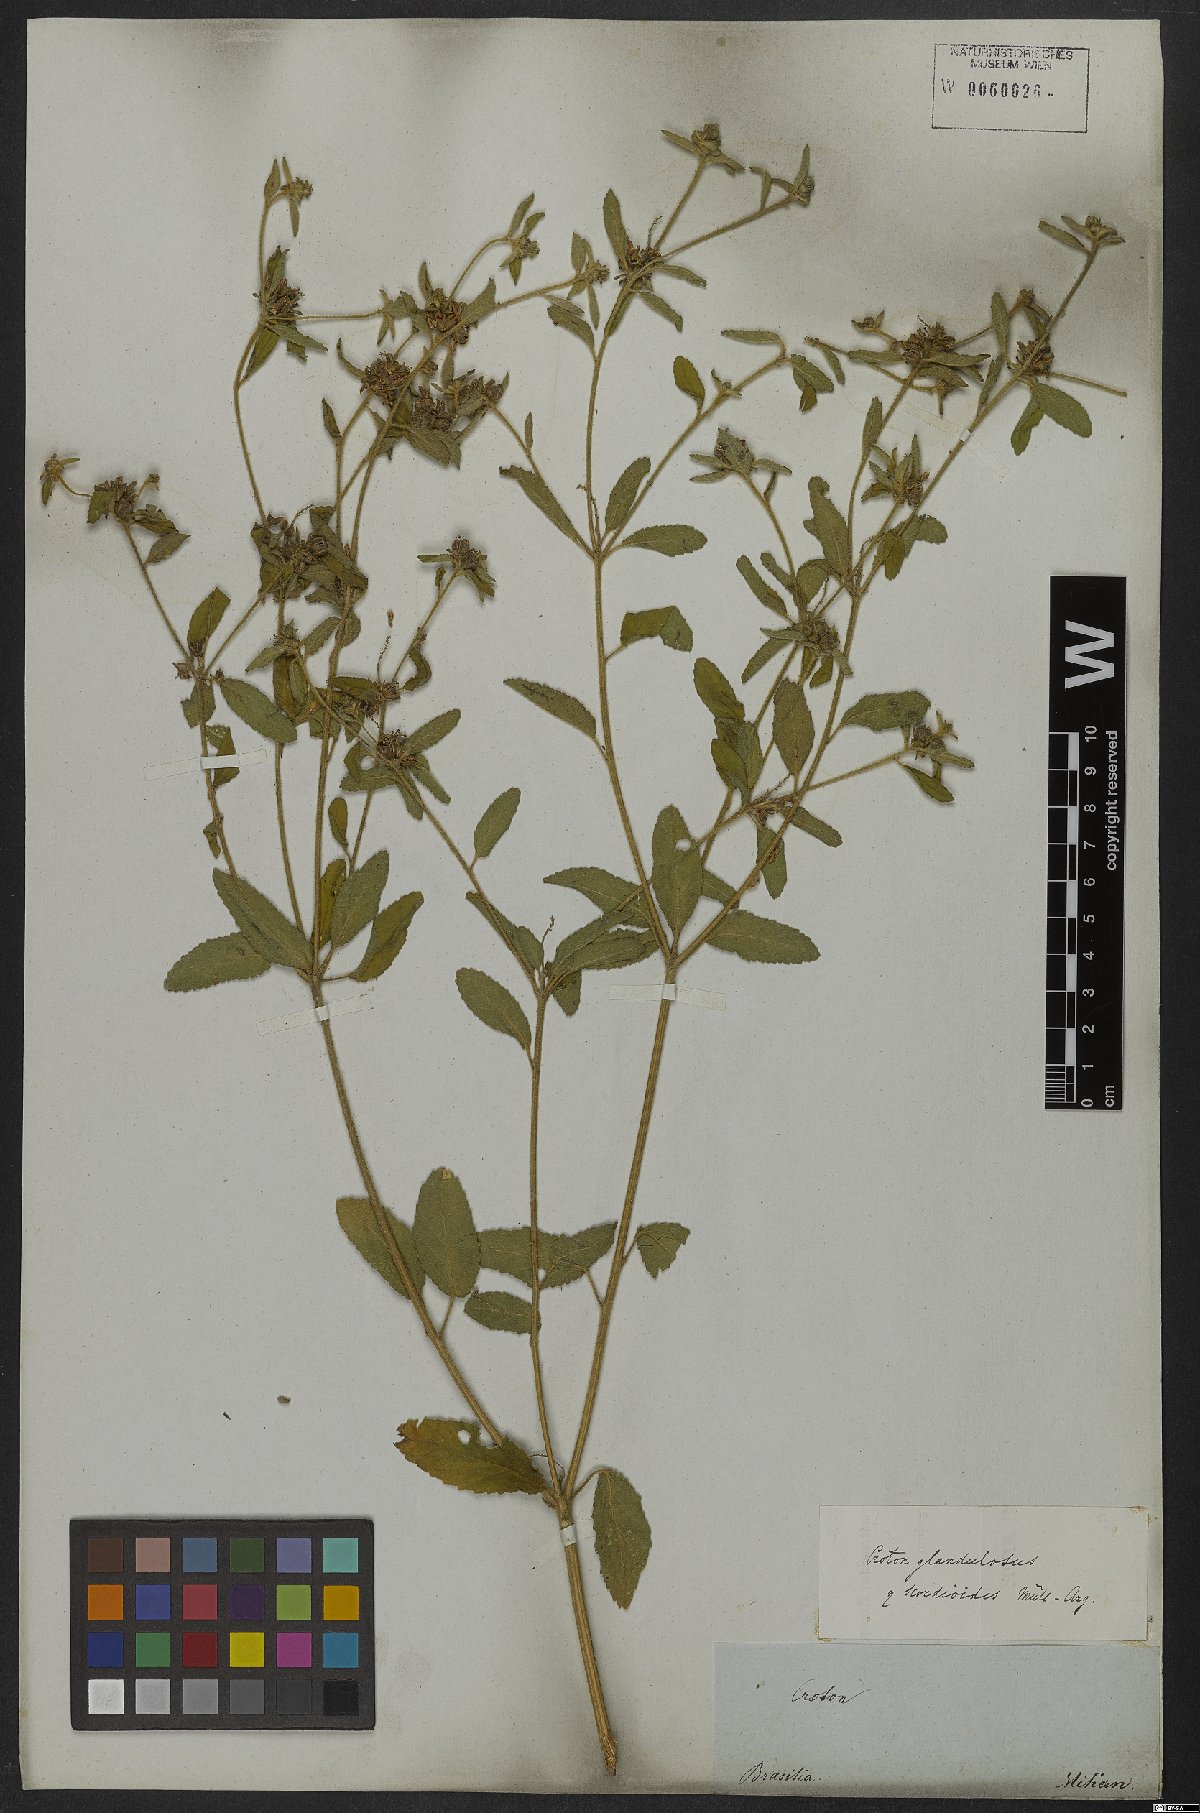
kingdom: Plantae
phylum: Tracheophyta
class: Magnoliopsida
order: Malpighiales
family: Euphorbiaceae
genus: Croton
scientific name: Croton glandulosus
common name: Tropic croton
